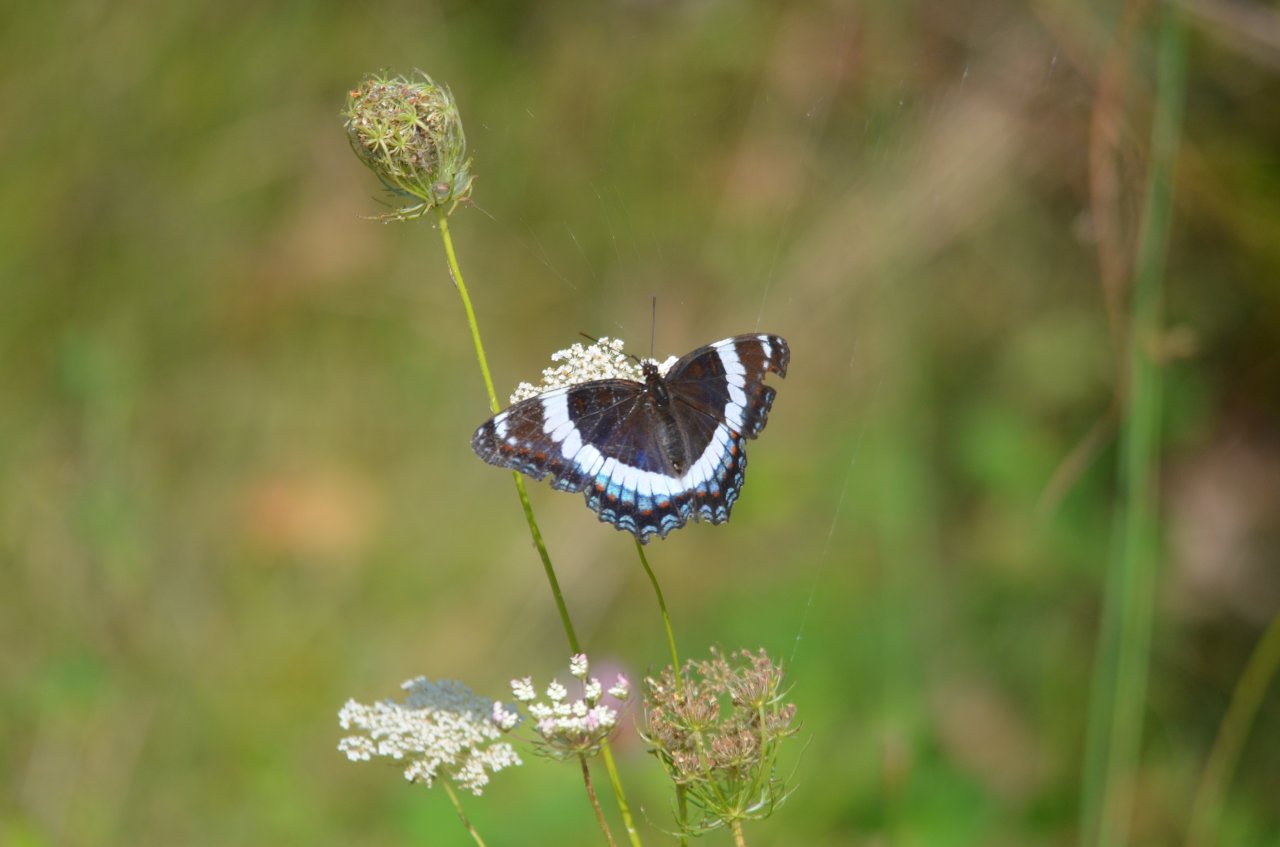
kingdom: Animalia
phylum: Arthropoda
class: Insecta
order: Lepidoptera
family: Nymphalidae
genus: Limenitis
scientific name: Limenitis arthemis
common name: Red-spotted Admiral
